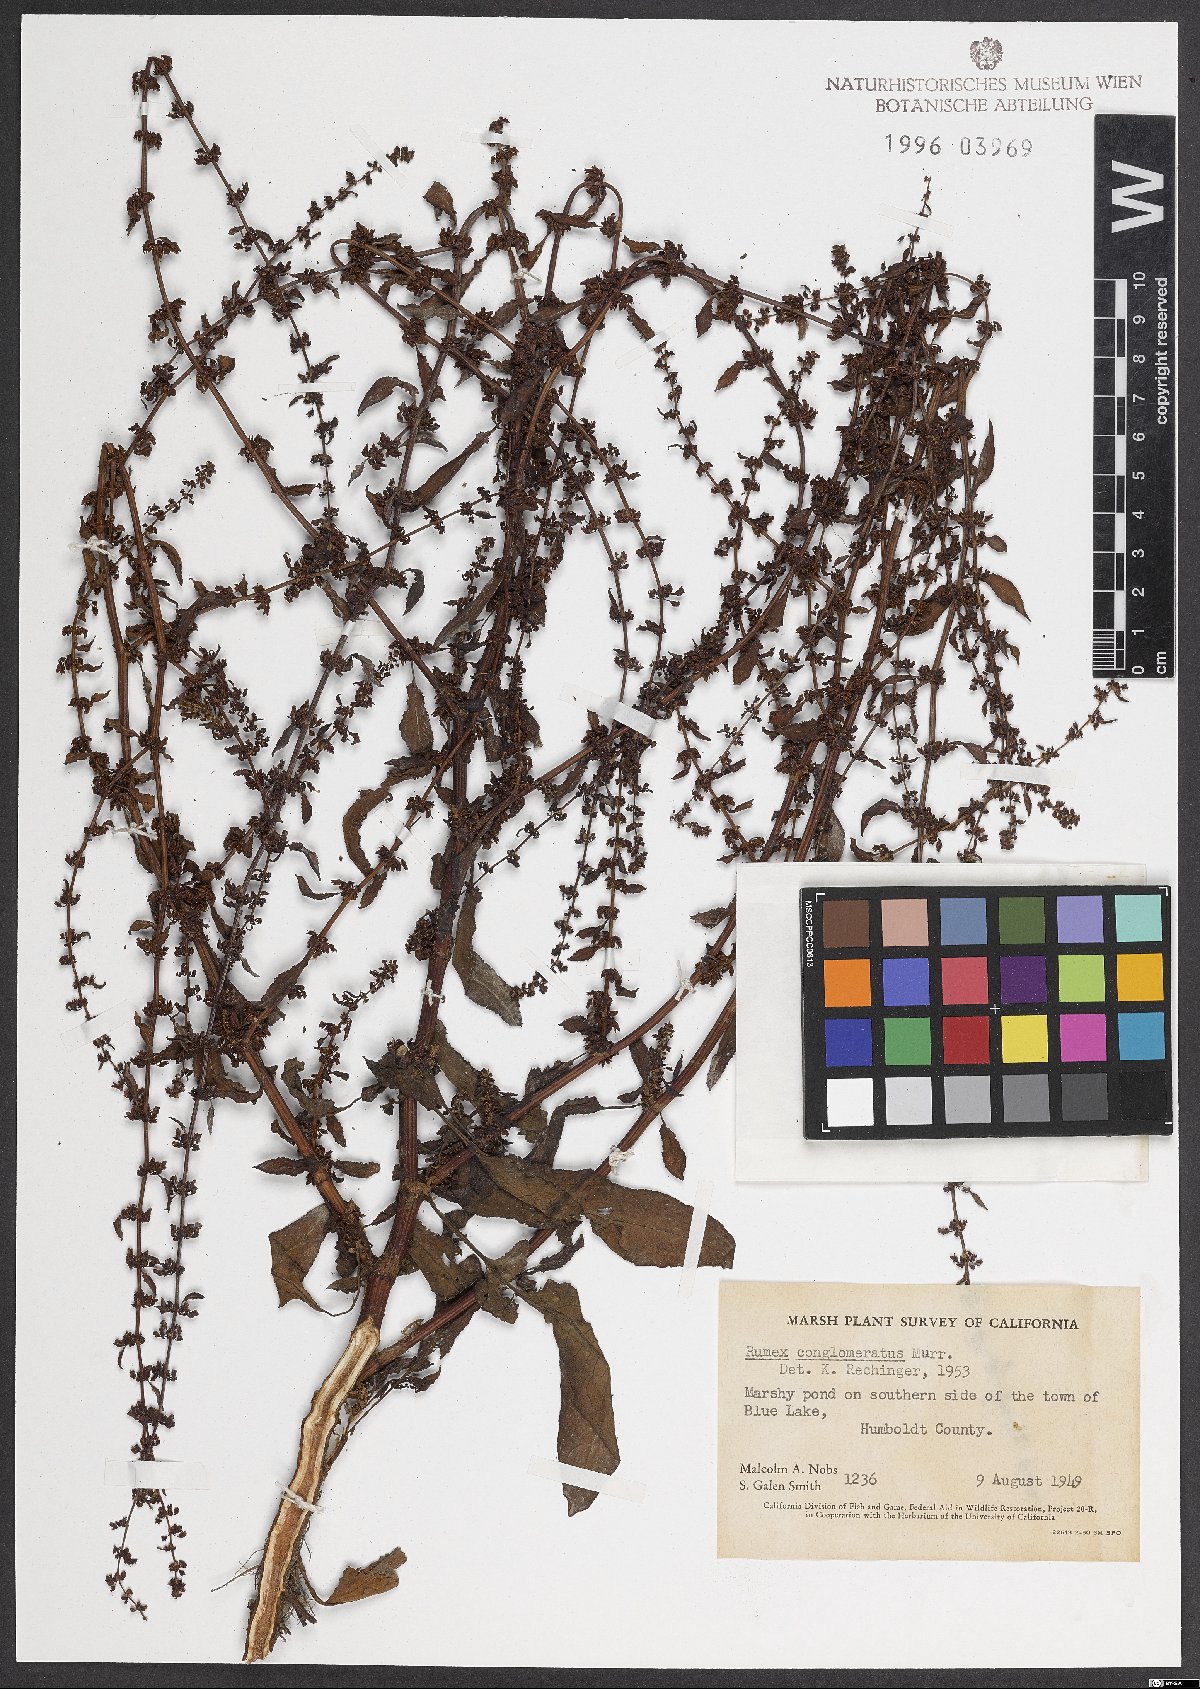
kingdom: Plantae
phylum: Tracheophyta
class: Magnoliopsida
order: Caryophyllales
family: Polygonaceae
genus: Rumex
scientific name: Rumex conglomeratus
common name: Clustered dock
